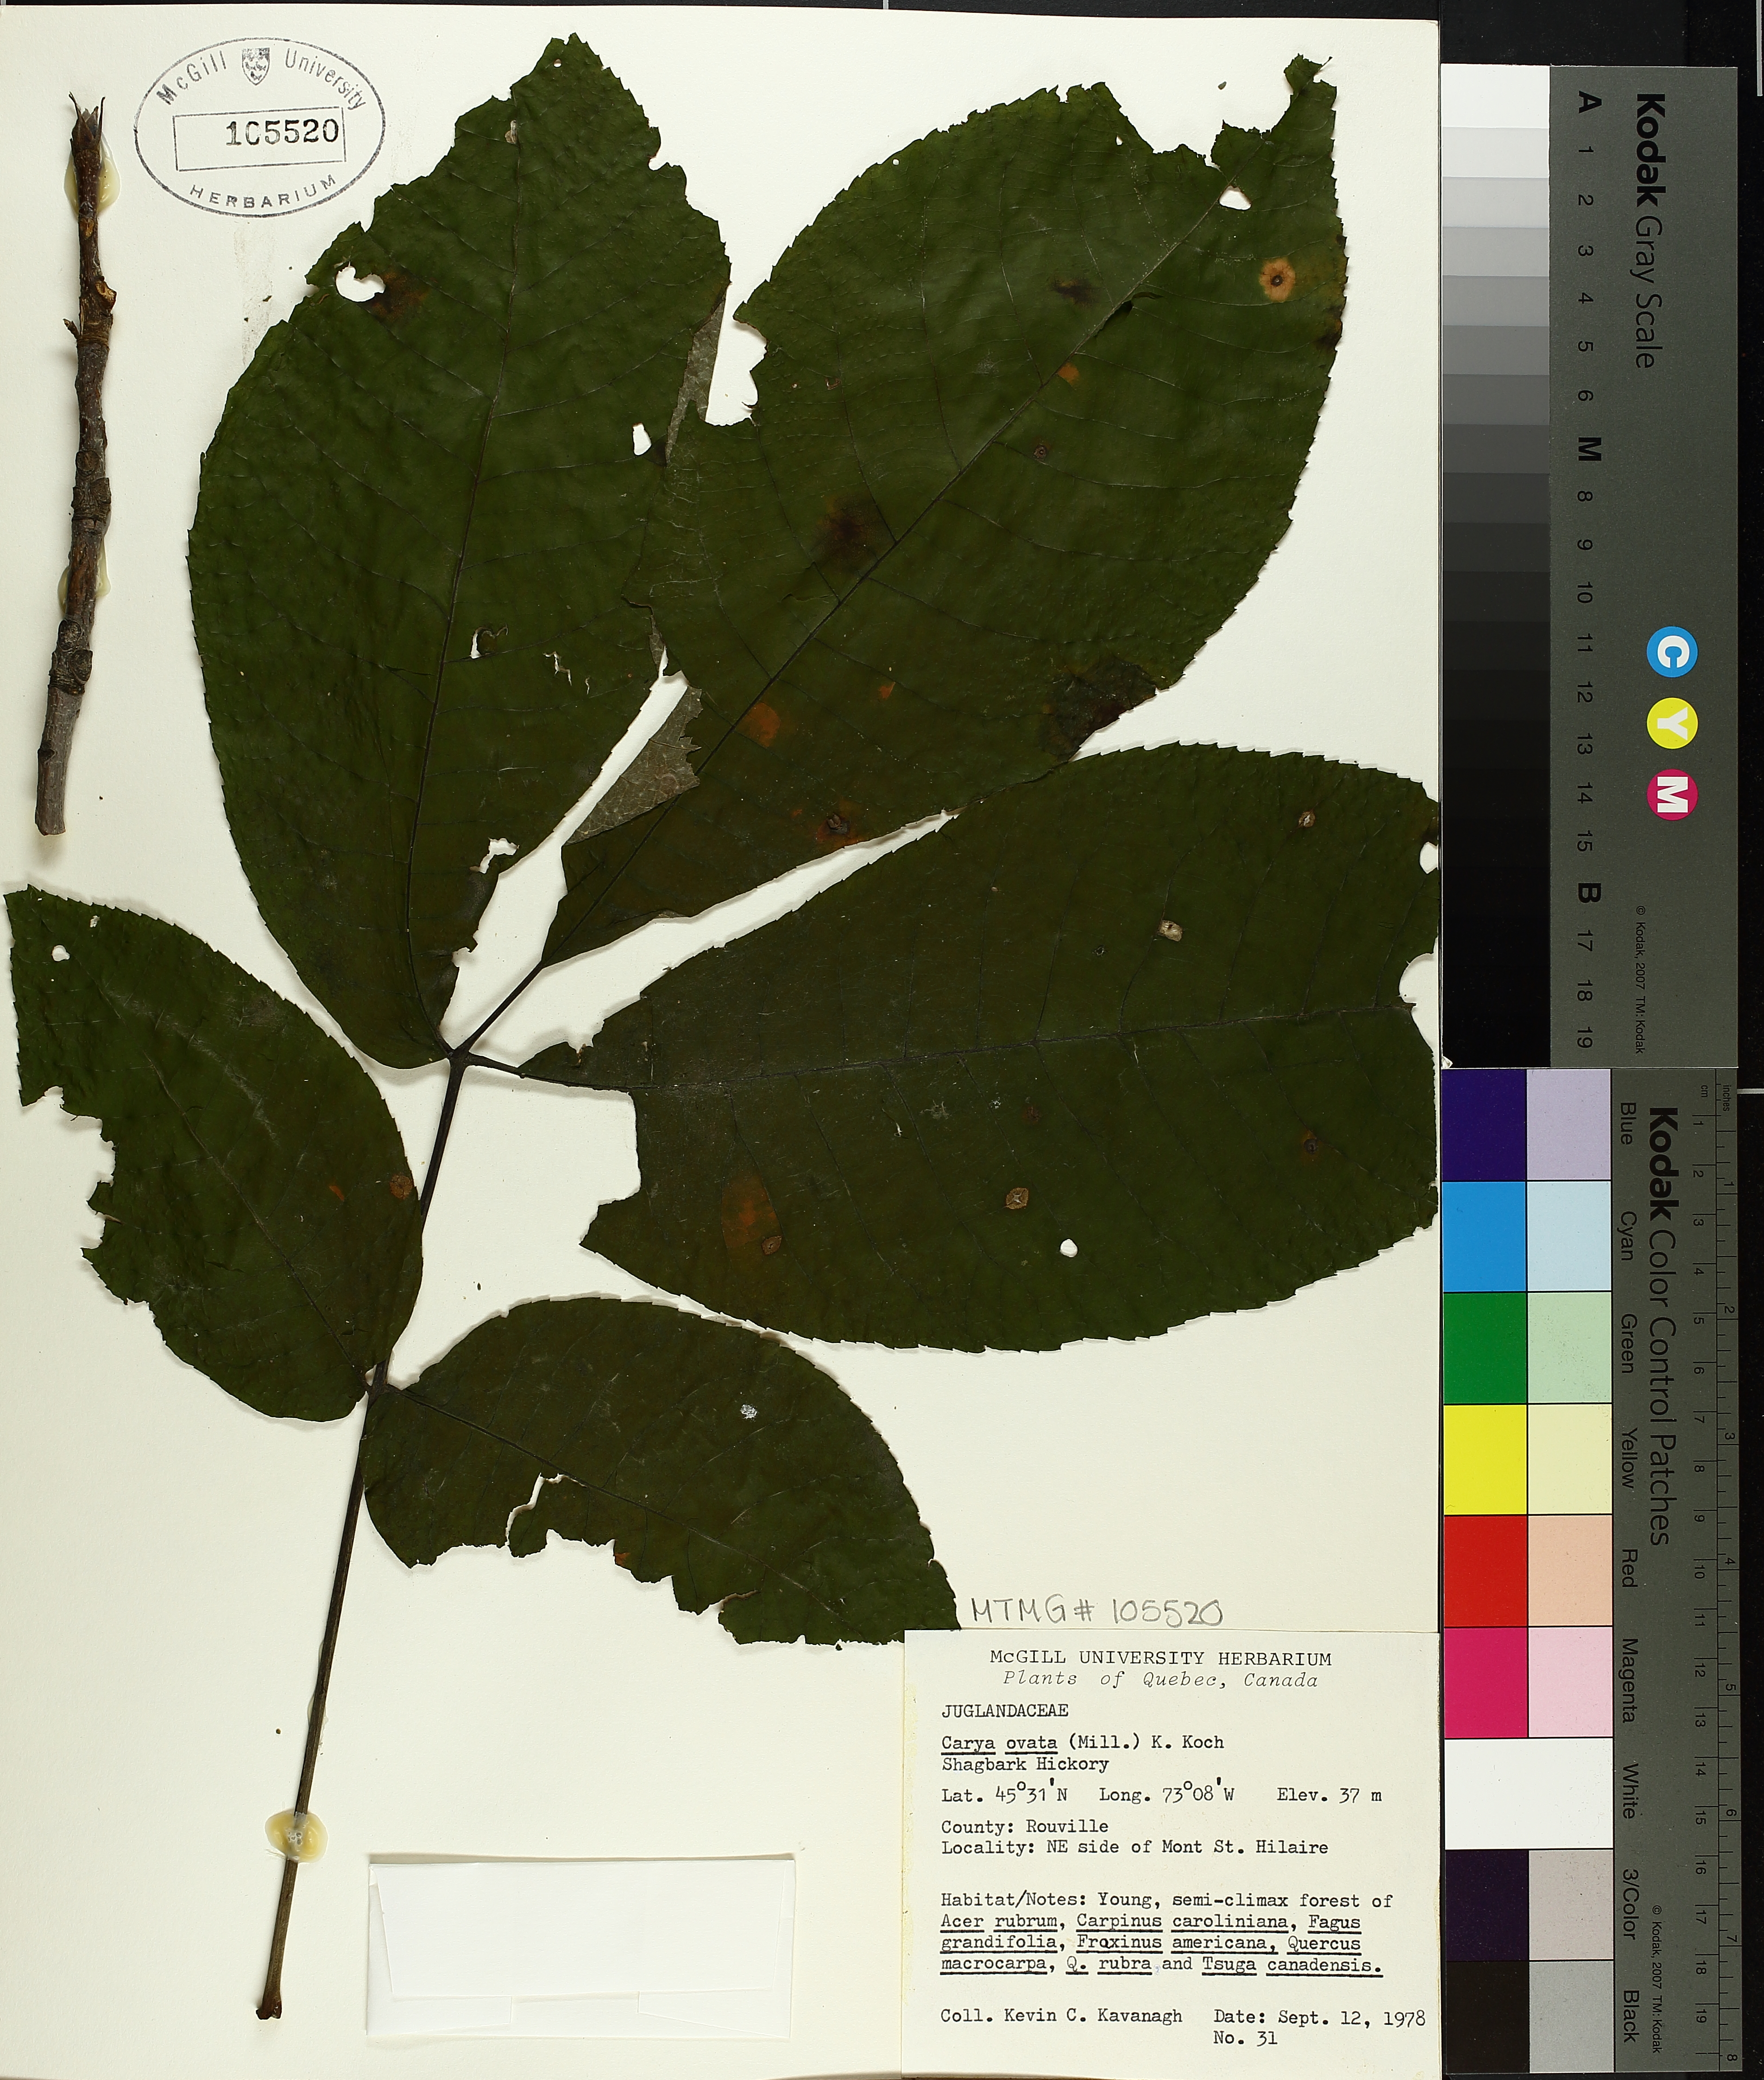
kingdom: Plantae
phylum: Tracheophyta
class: Magnoliopsida
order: Fagales
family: Juglandaceae
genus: Carya
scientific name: Carya ovata
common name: Shagbark hickory
